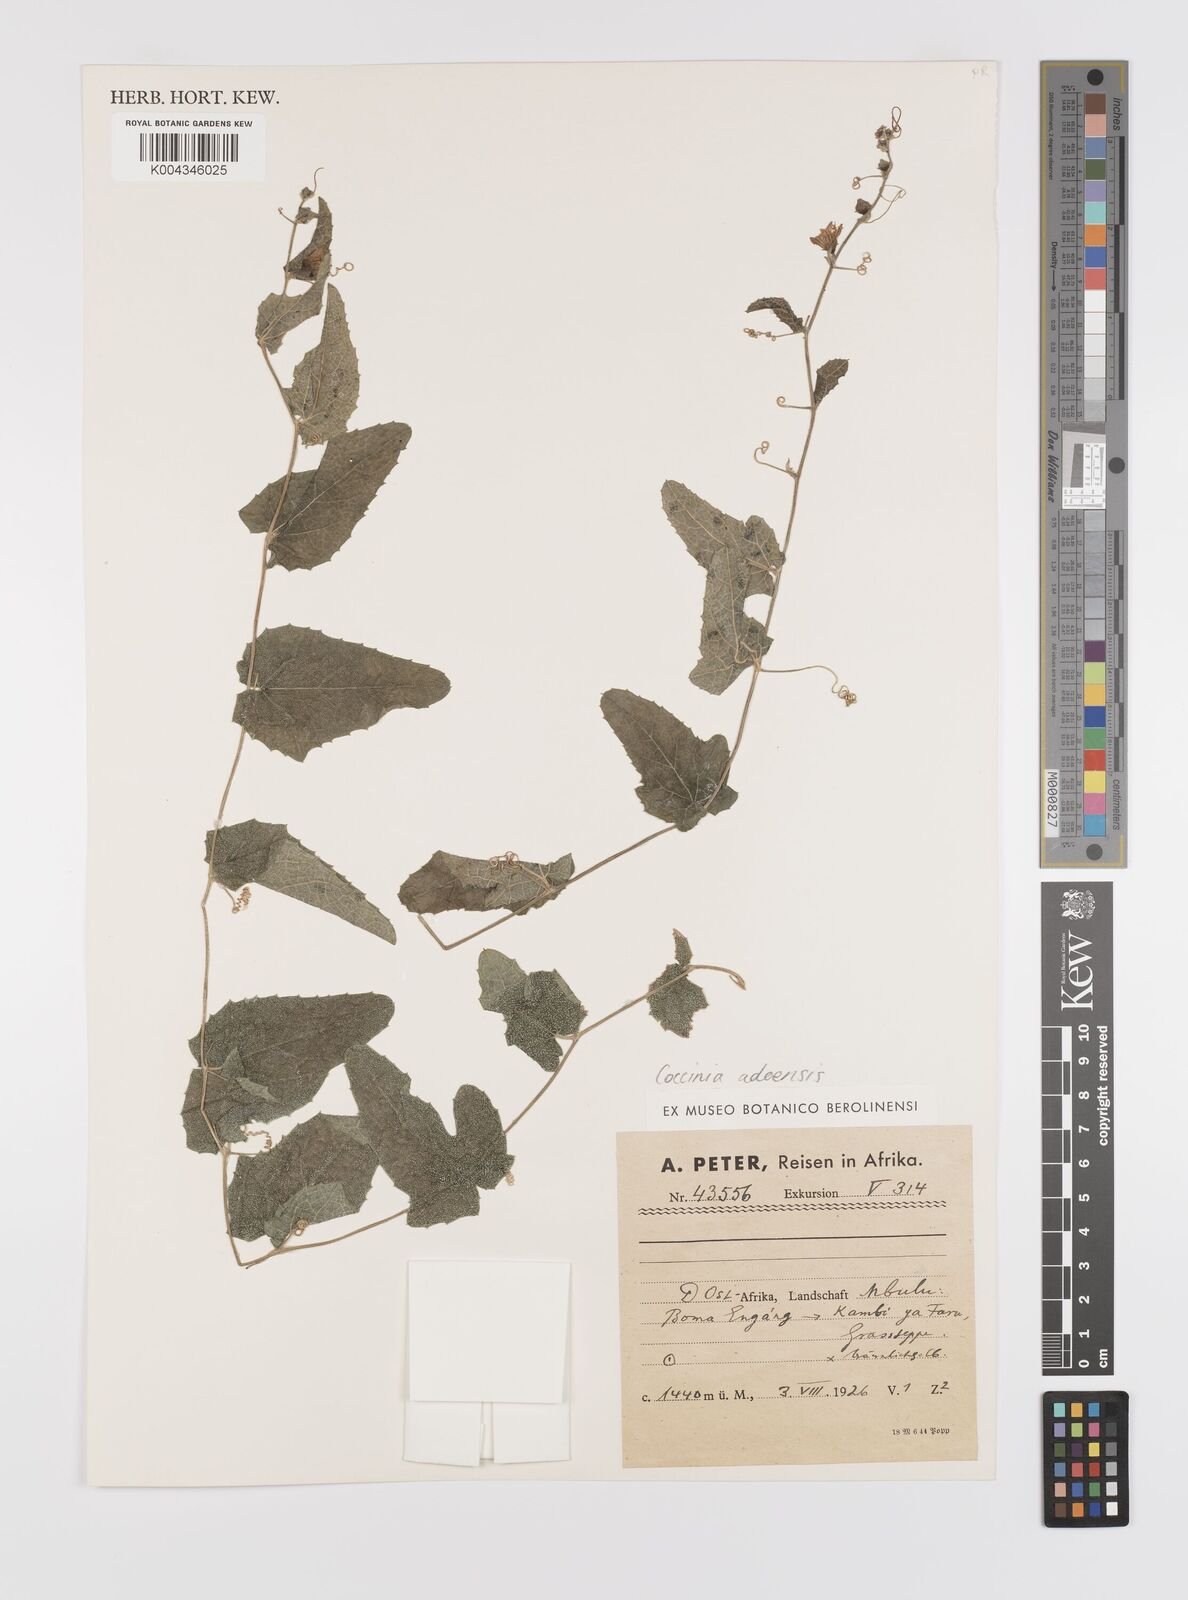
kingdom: Plantae
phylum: Tracheophyta
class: Magnoliopsida
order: Cucurbitales
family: Cucurbitaceae
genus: Coccinia
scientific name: Coccinia adoensis
